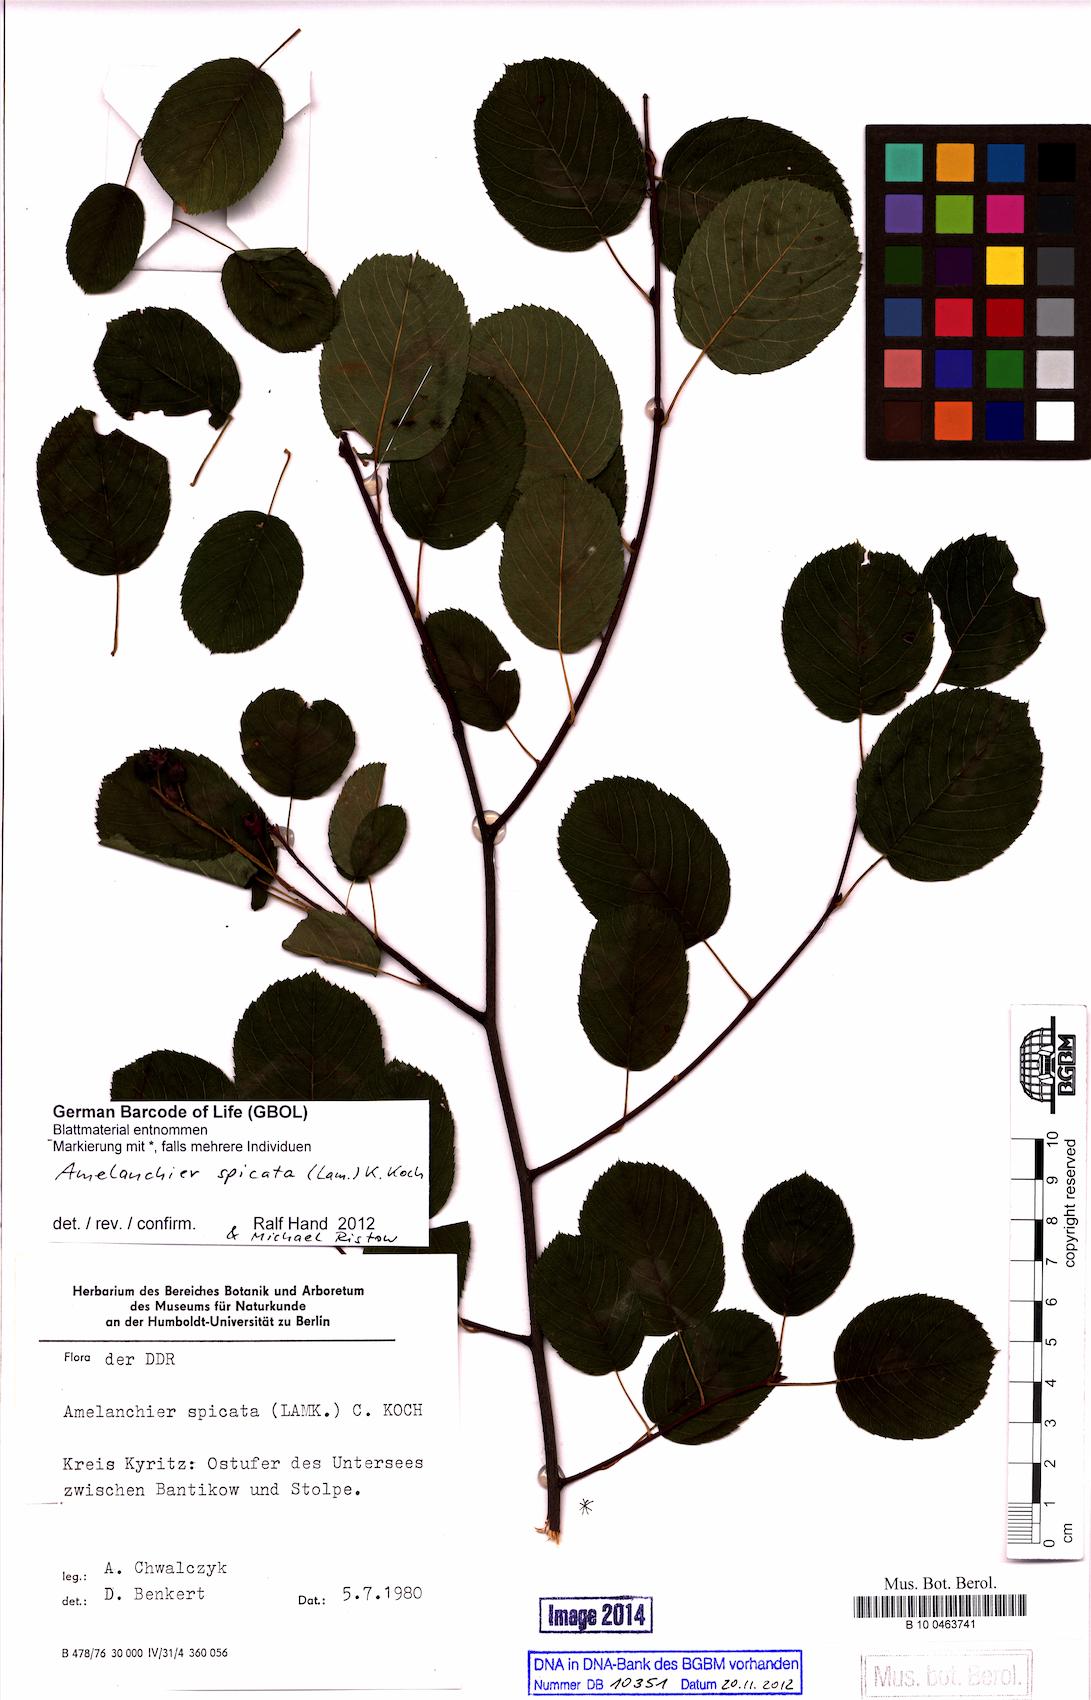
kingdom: Plantae
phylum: Tracheophyta
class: Magnoliopsida
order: Rosales
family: Rosaceae
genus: Amelanchier
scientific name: Amelanchier humilis
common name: Low juneberry
